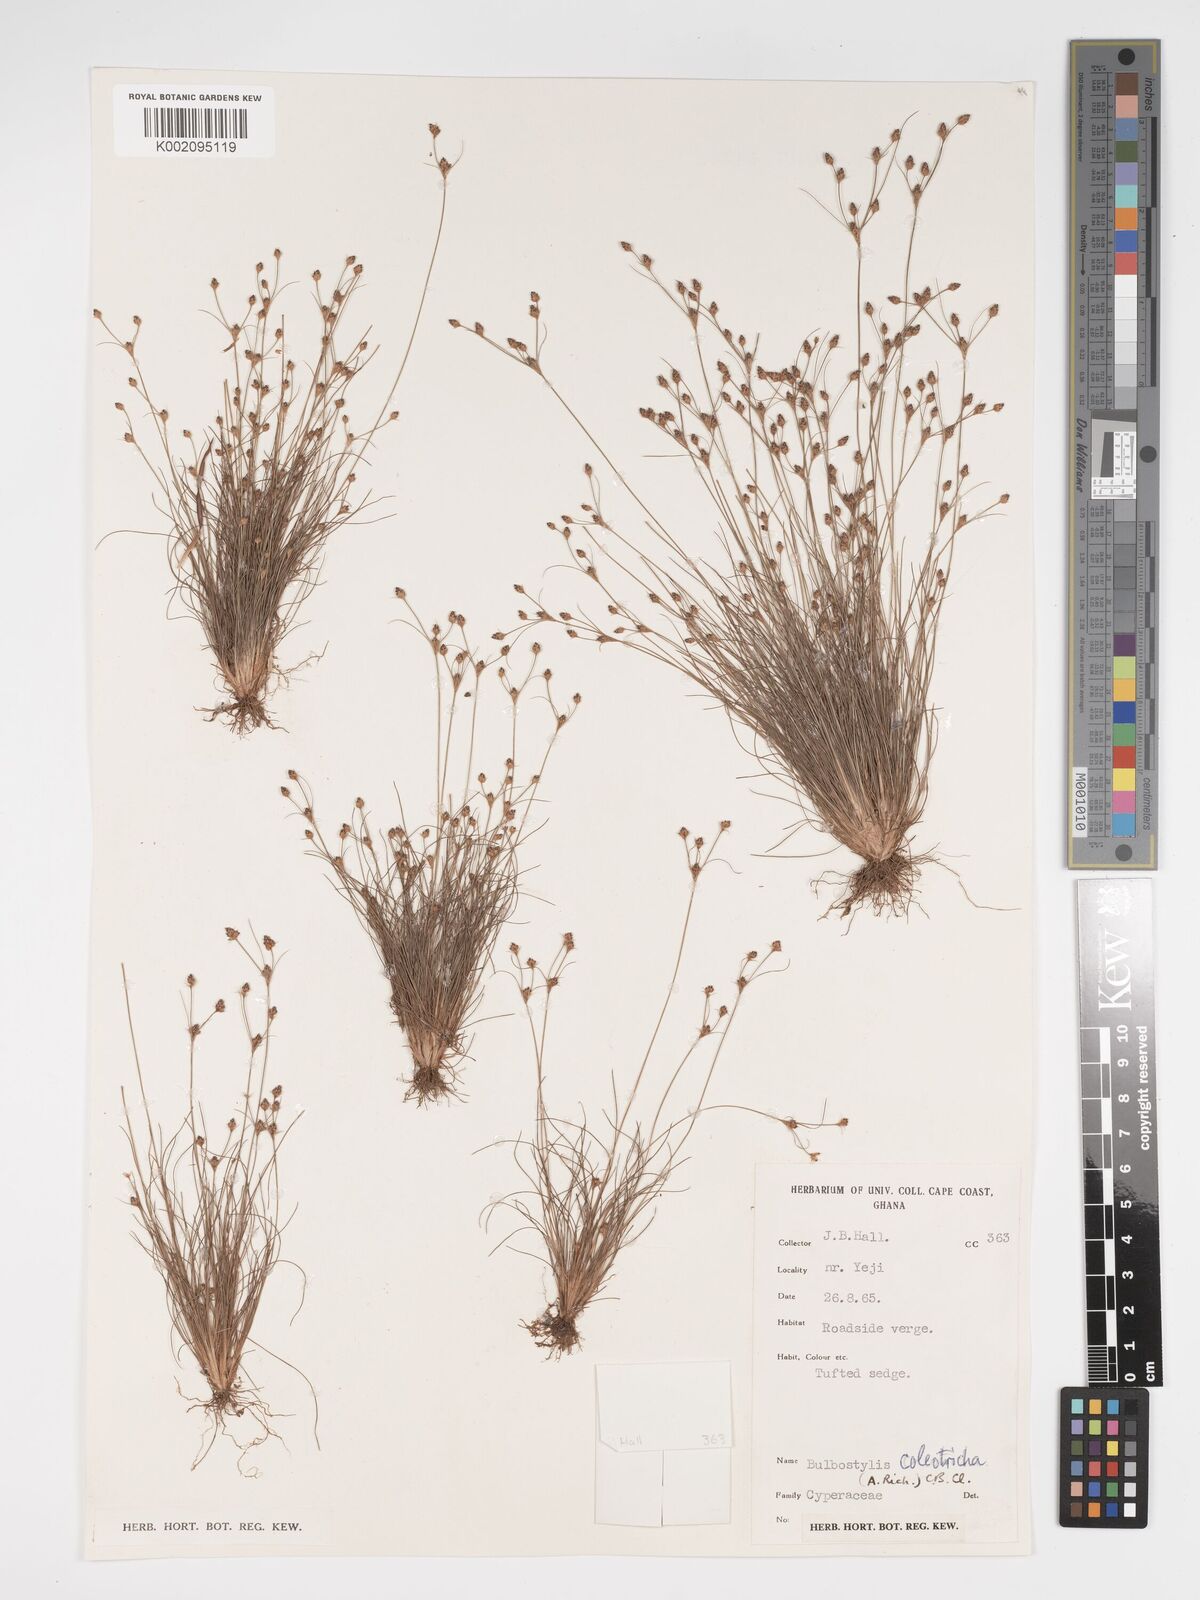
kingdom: Plantae
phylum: Tracheophyta
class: Liliopsida
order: Poales
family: Cyperaceae
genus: Bulbostylis
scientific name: Bulbostylis coleotricha
